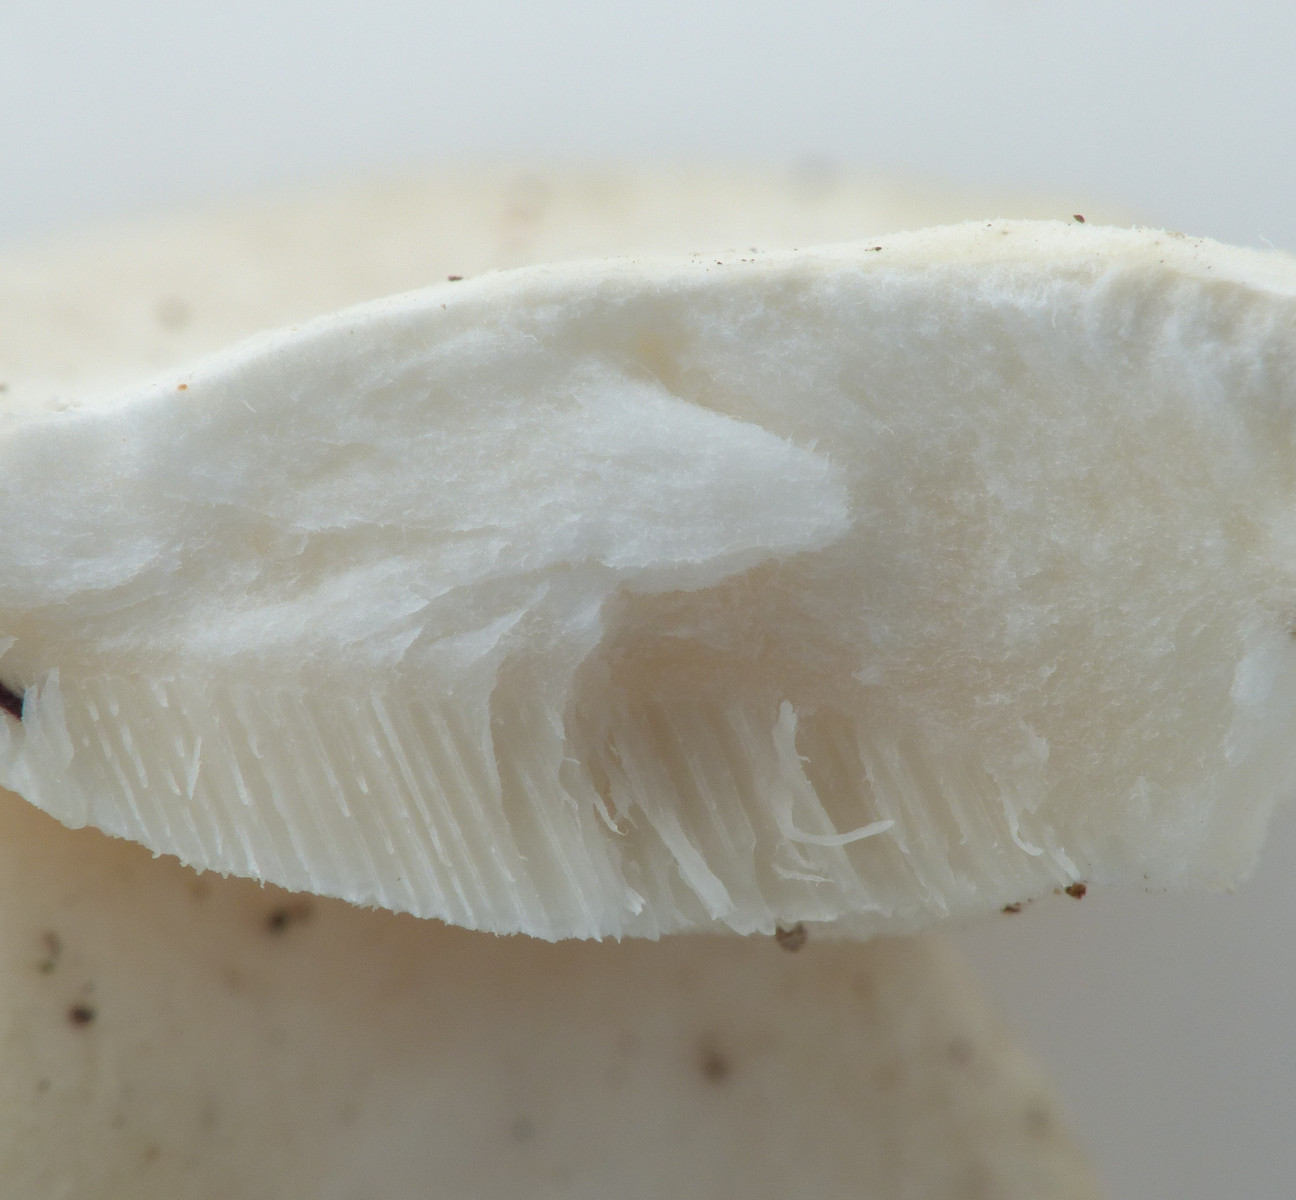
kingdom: Fungi
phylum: Basidiomycota
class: Agaricomycetes
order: Polyporales
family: Incrustoporiaceae
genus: Tyromyces
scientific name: Tyromyces lacteus
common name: mælkehvid kødporesvamp
